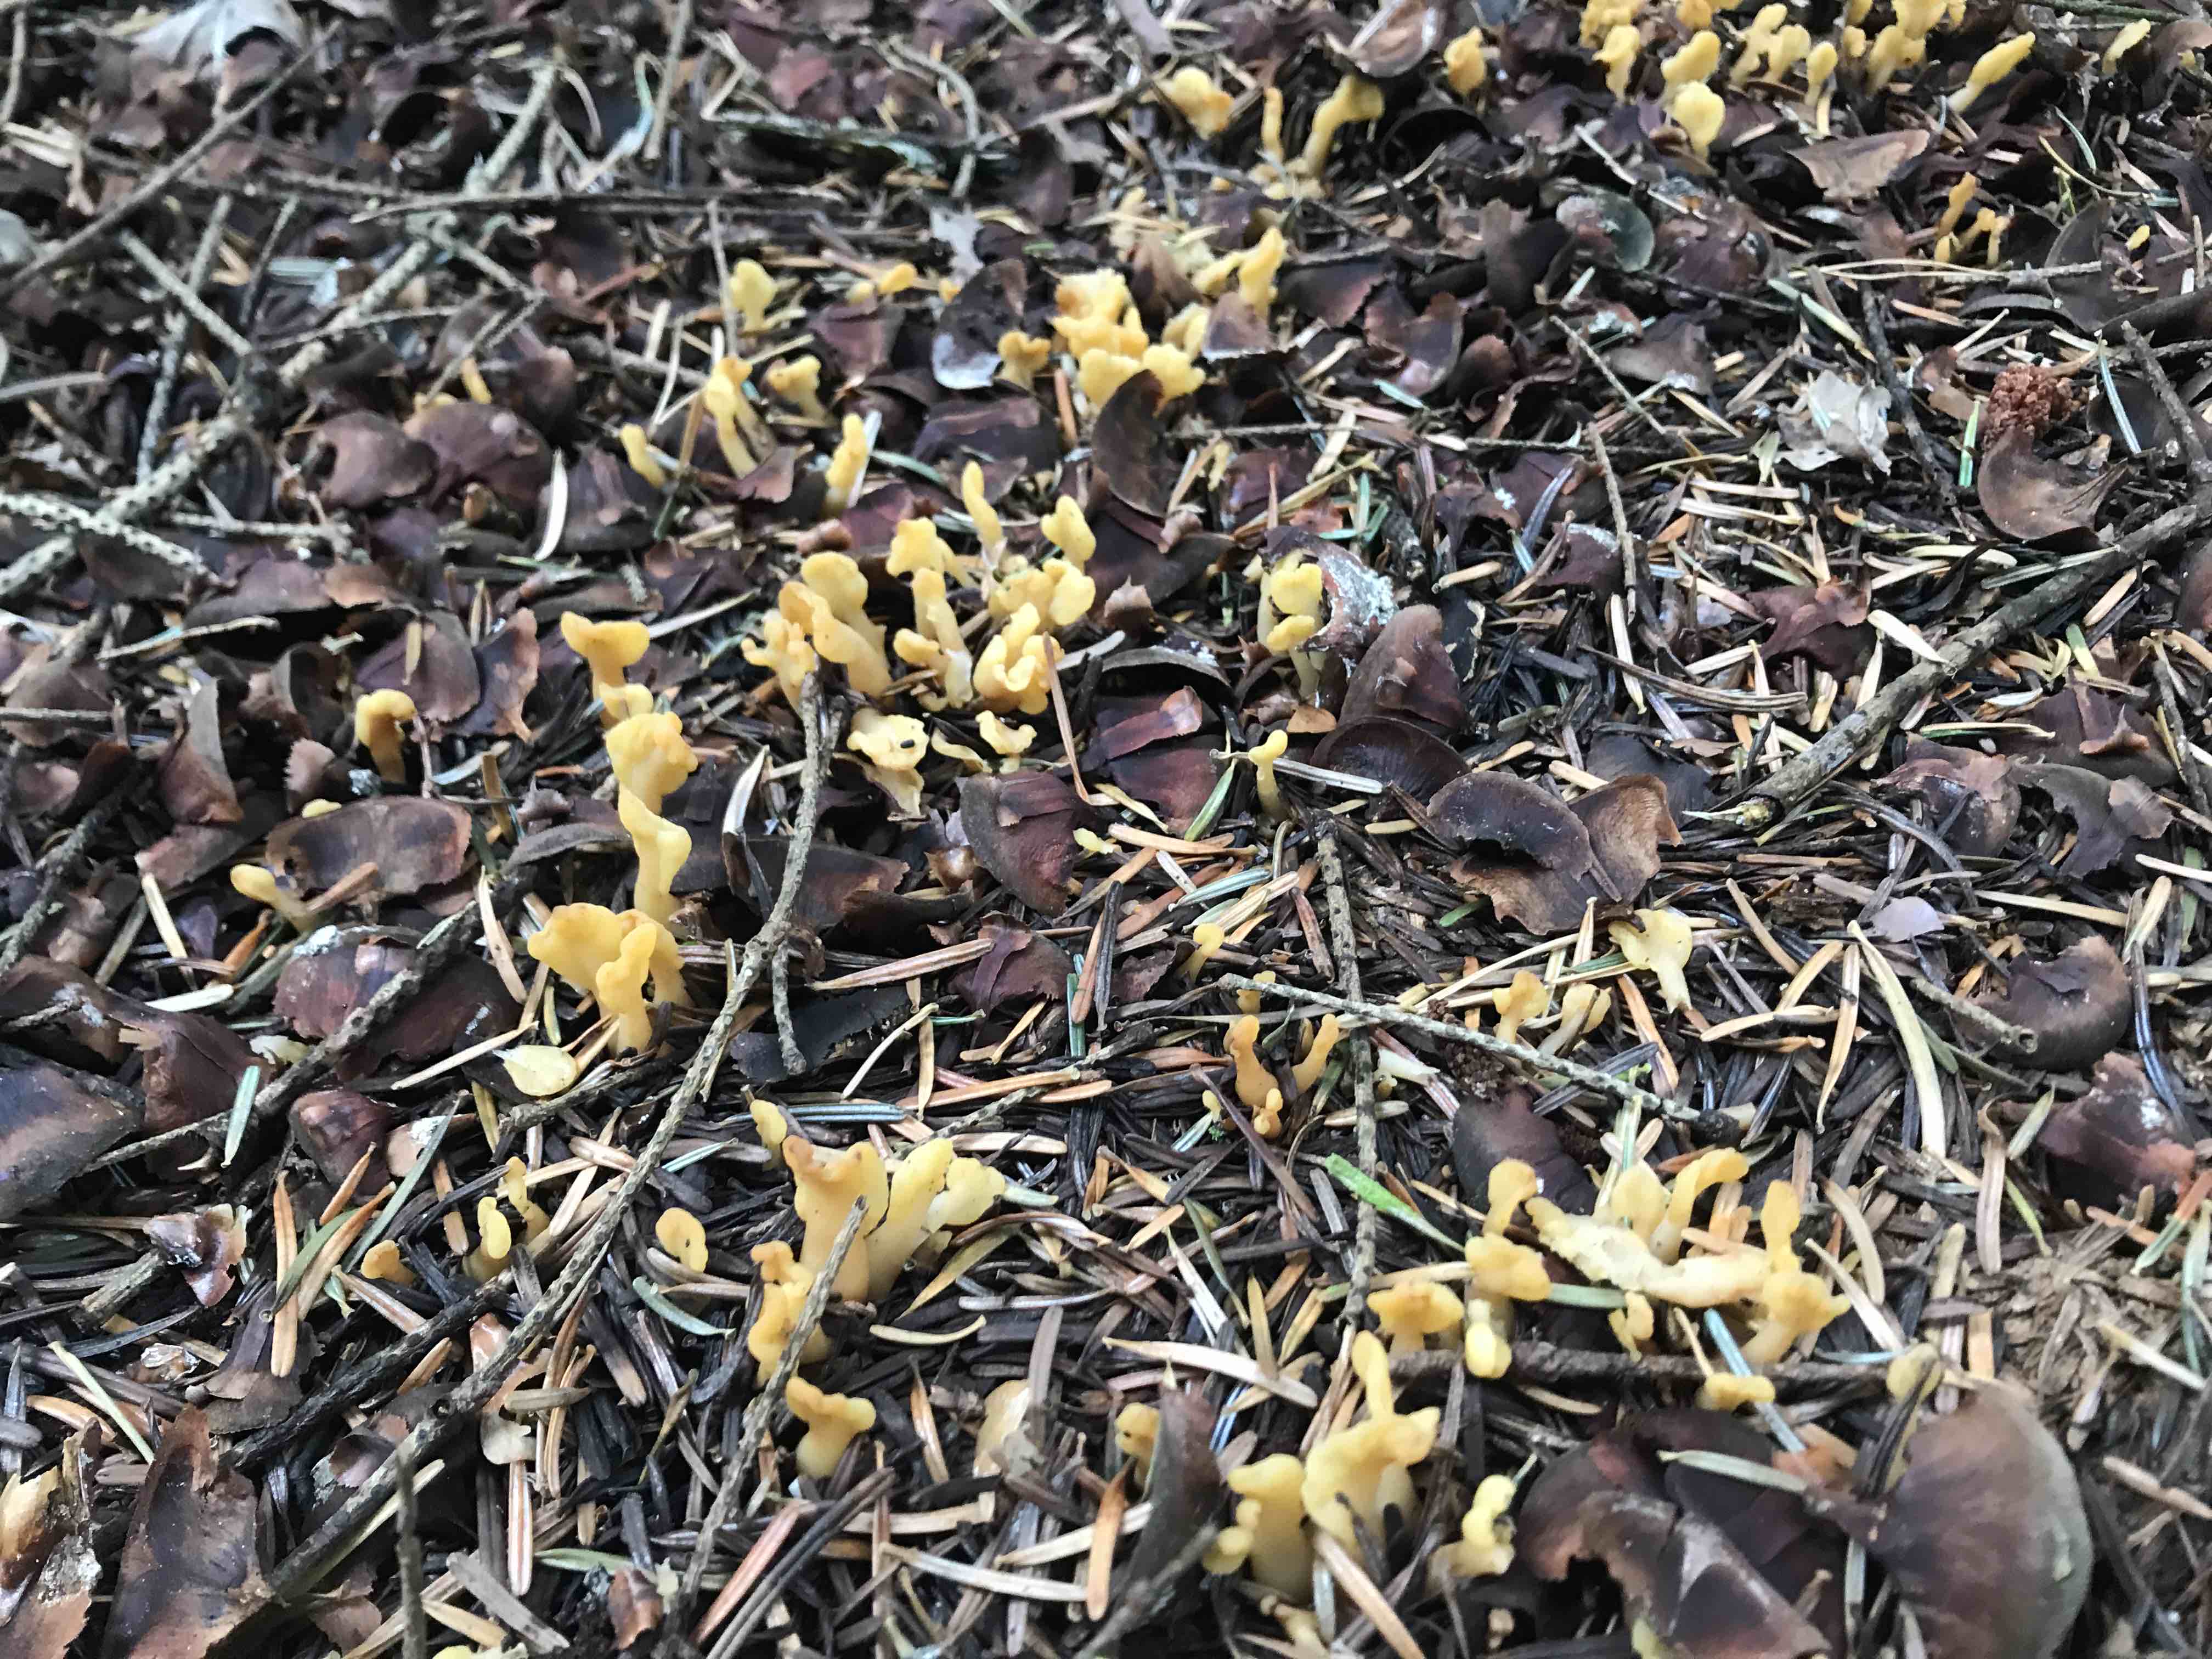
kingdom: Fungi
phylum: Ascomycota
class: Leotiomycetes
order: Rhytismatales
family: Cudoniaceae
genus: Spathularia
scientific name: Spathularia flavida
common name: gul spatelsvamp
